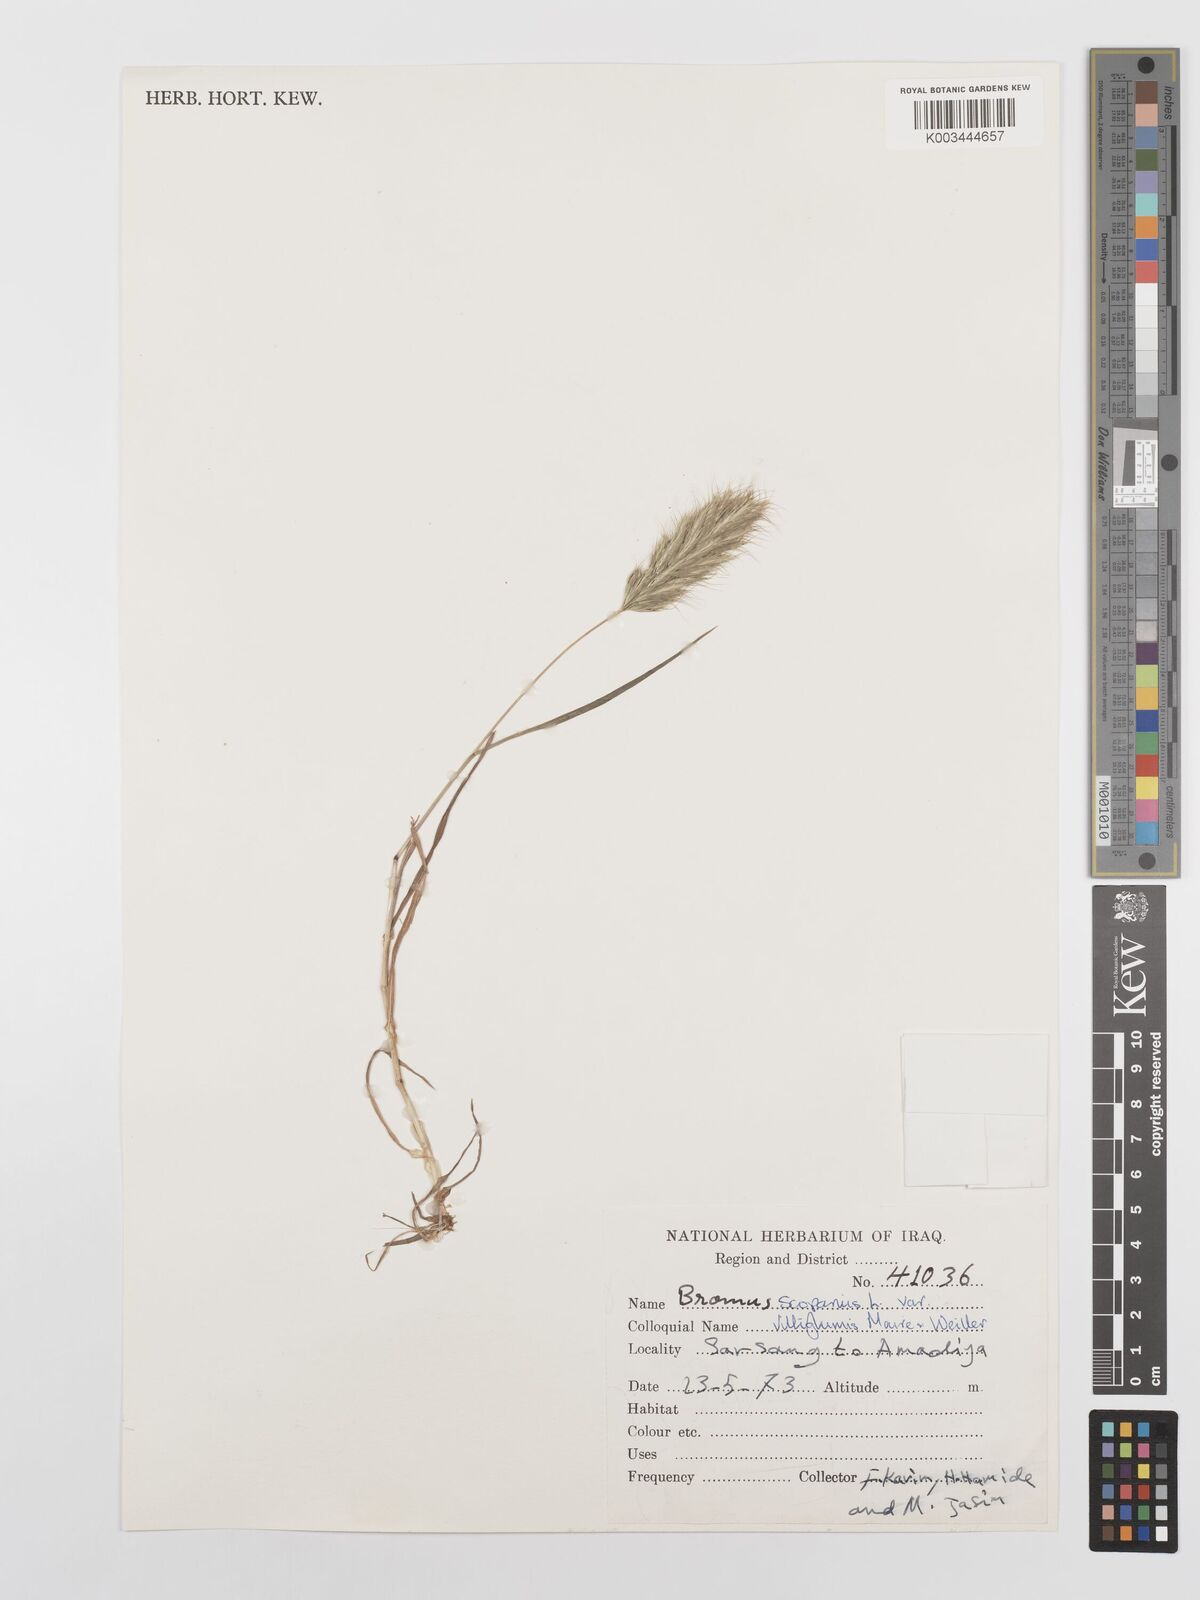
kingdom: Plantae
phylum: Tracheophyta
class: Liliopsida
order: Poales
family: Poaceae
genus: Bromus
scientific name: Bromus scoparius
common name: Broom brome
